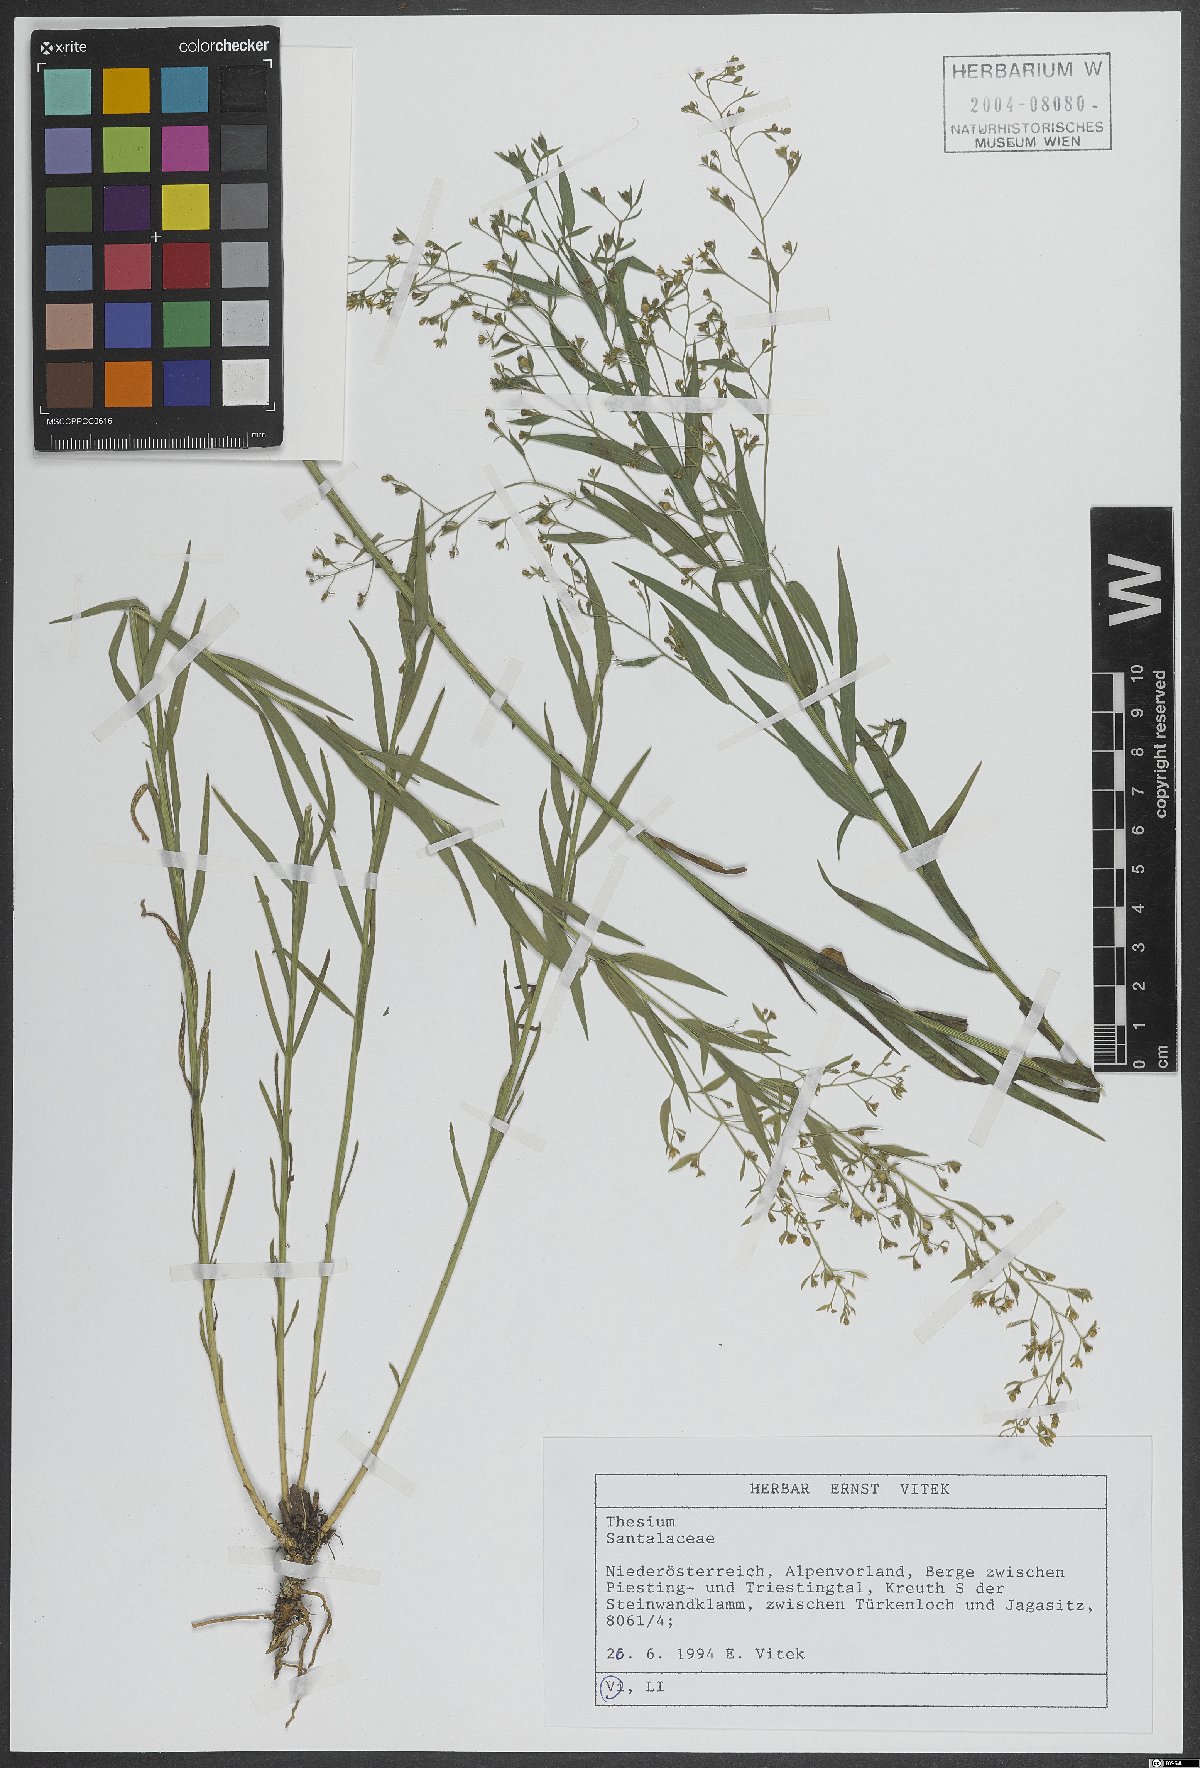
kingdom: Plantae
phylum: Tracheophyta
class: Magnoliopsida
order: Santalales
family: Thesiaceae
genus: Thesium
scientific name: Thesium
